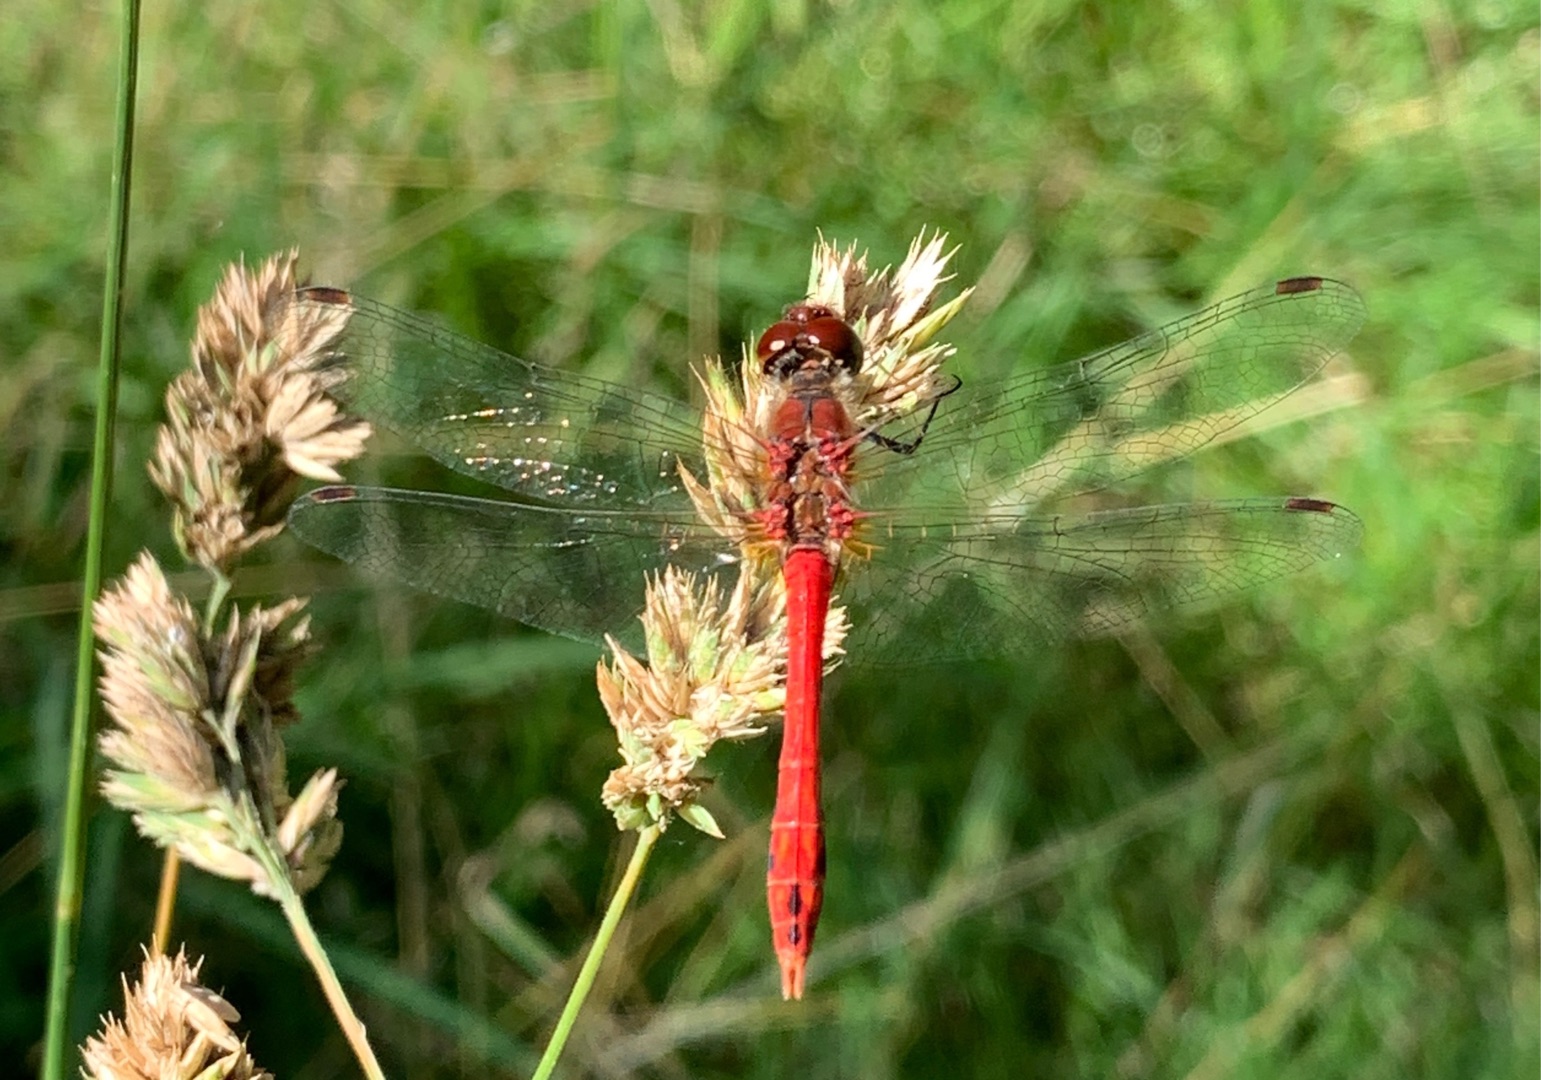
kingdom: Animalia
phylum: Arthropoda
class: Insecta
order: Odonata
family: Libellulidae
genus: Sympetrum
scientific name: Sympetrum sanguineum
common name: Blodrød hedelibel
